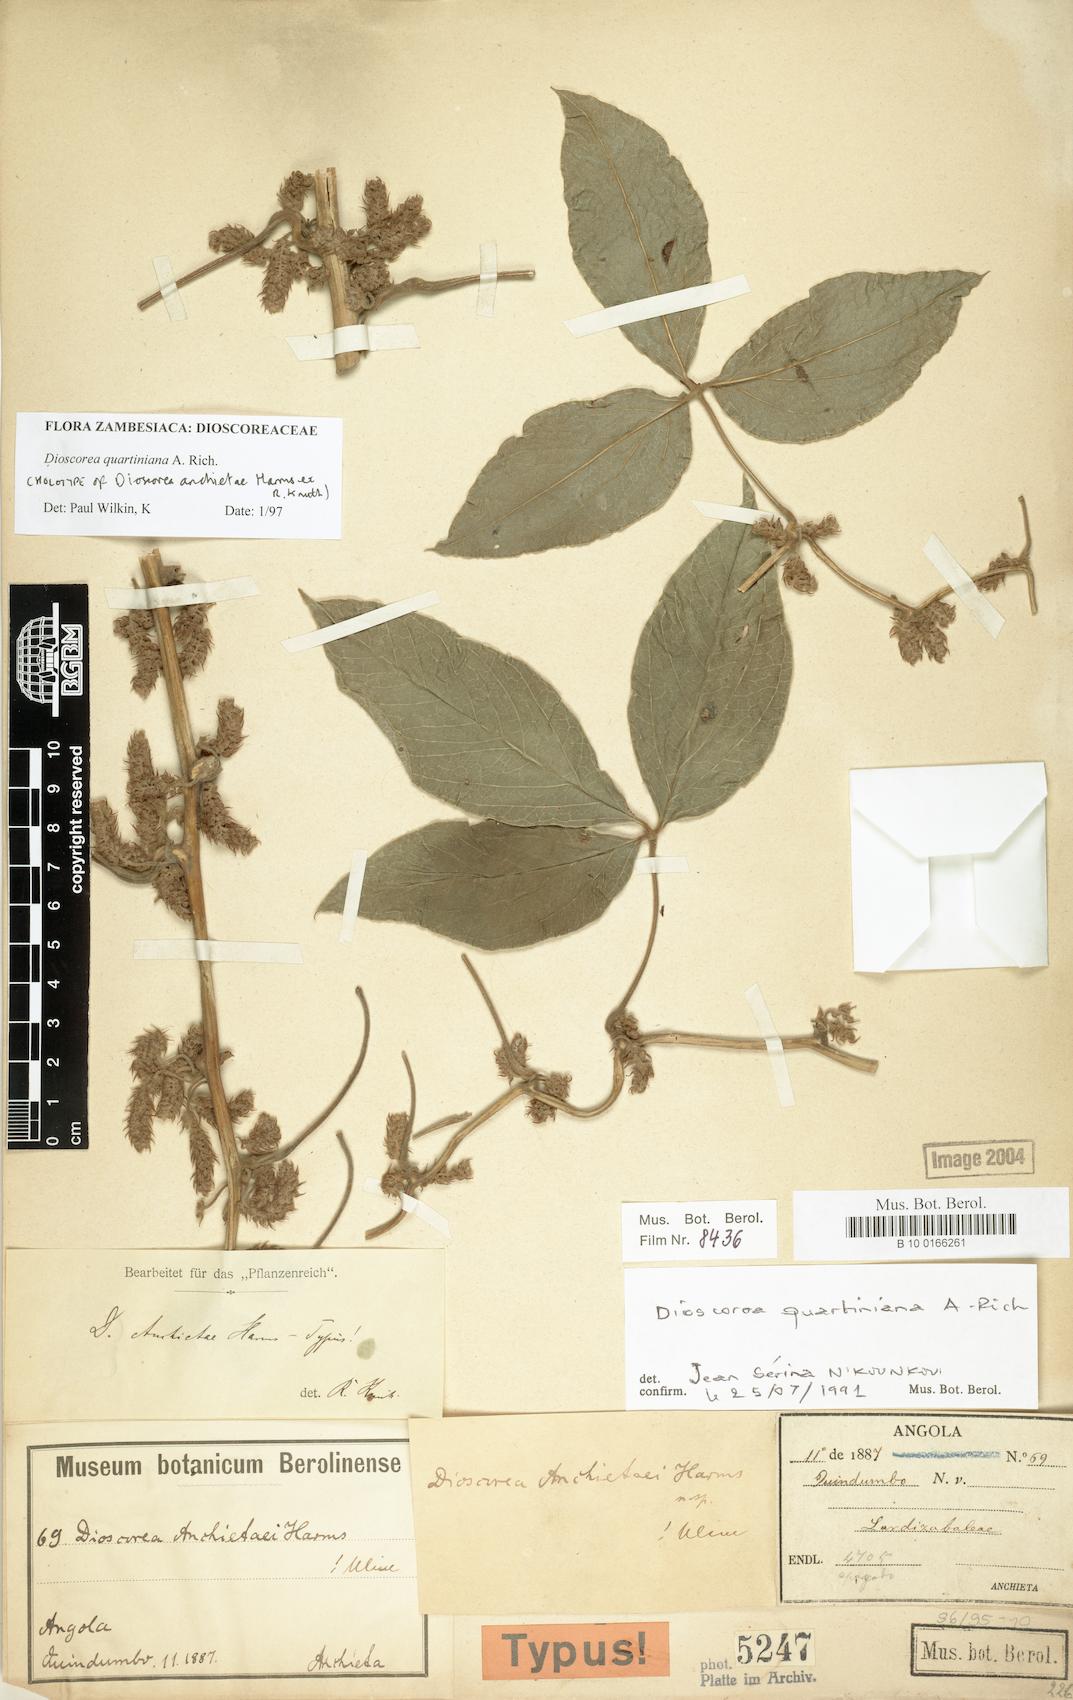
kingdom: Plantae
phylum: Tracheophyta
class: Liliopsida
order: Dioscoreales
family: Dioscoreaceae
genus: Dioscorea
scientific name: Dioscorea quartiniana
